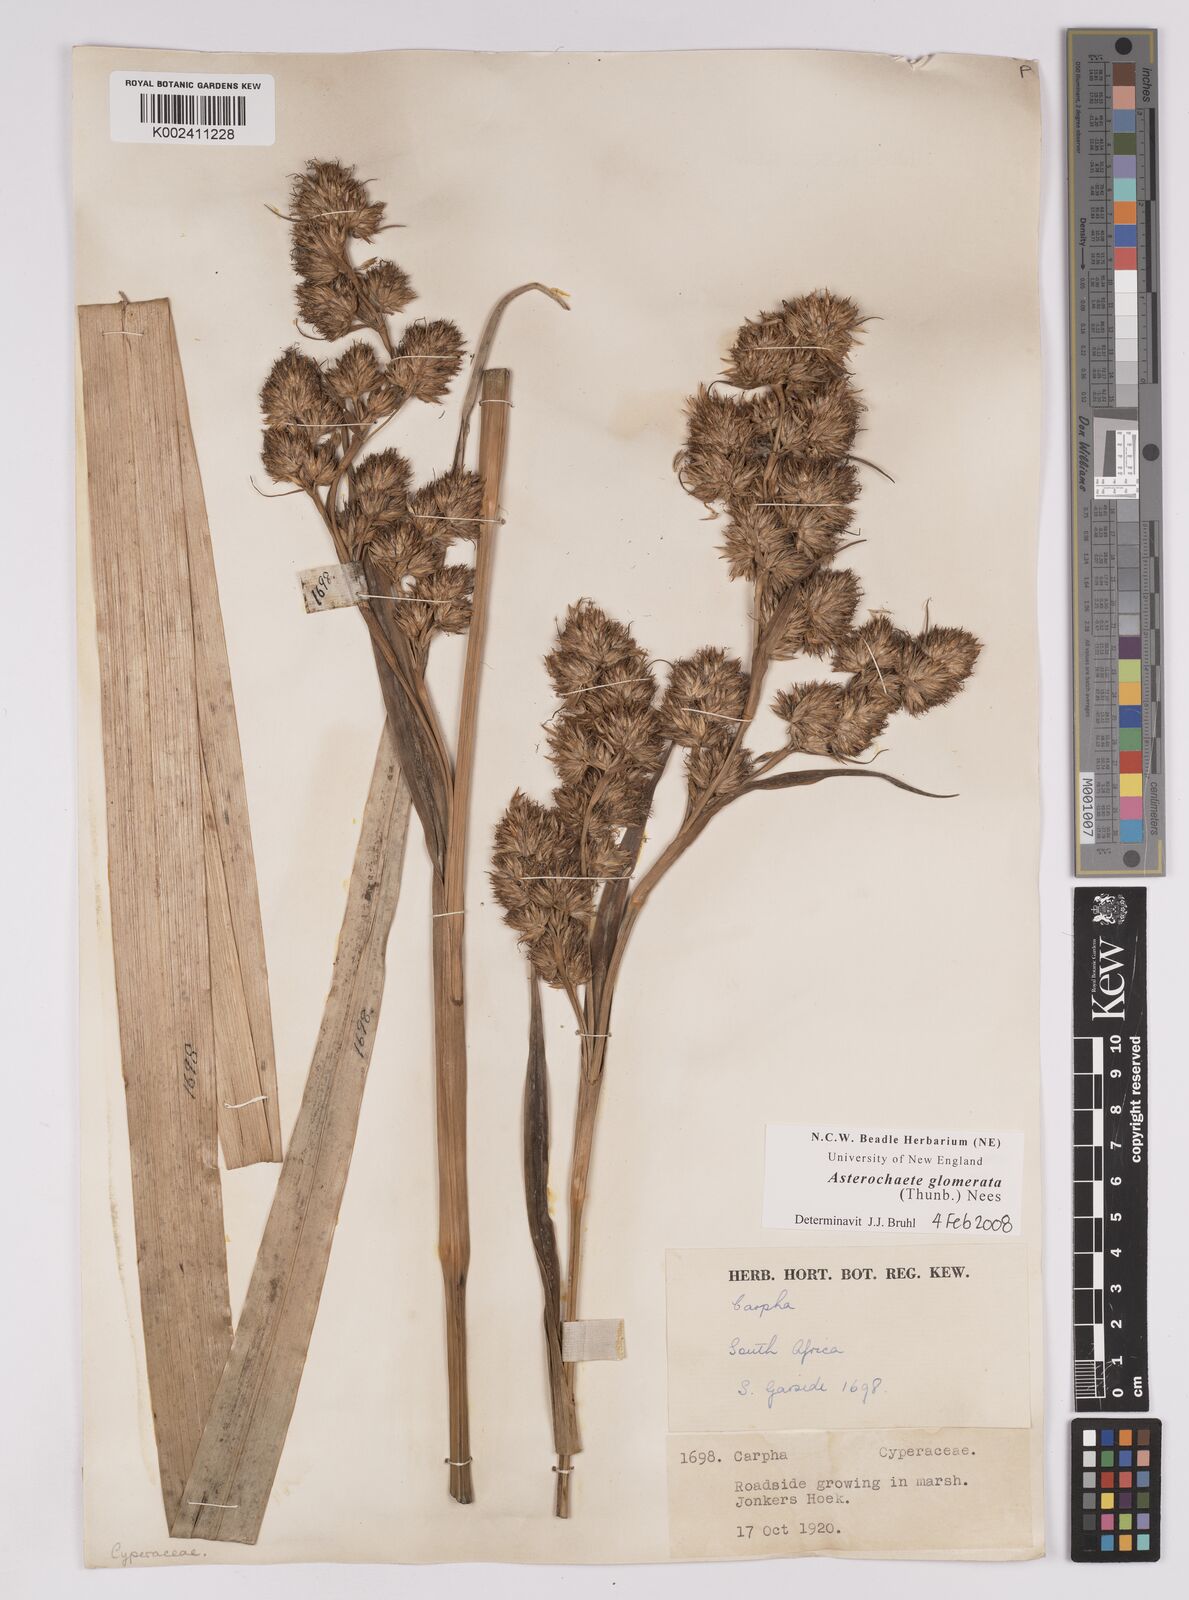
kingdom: Plantae
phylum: Tracheophyta
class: Liliopsida
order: Poales
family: Cyperaceae
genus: Carpha
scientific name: Carpha glomerata
